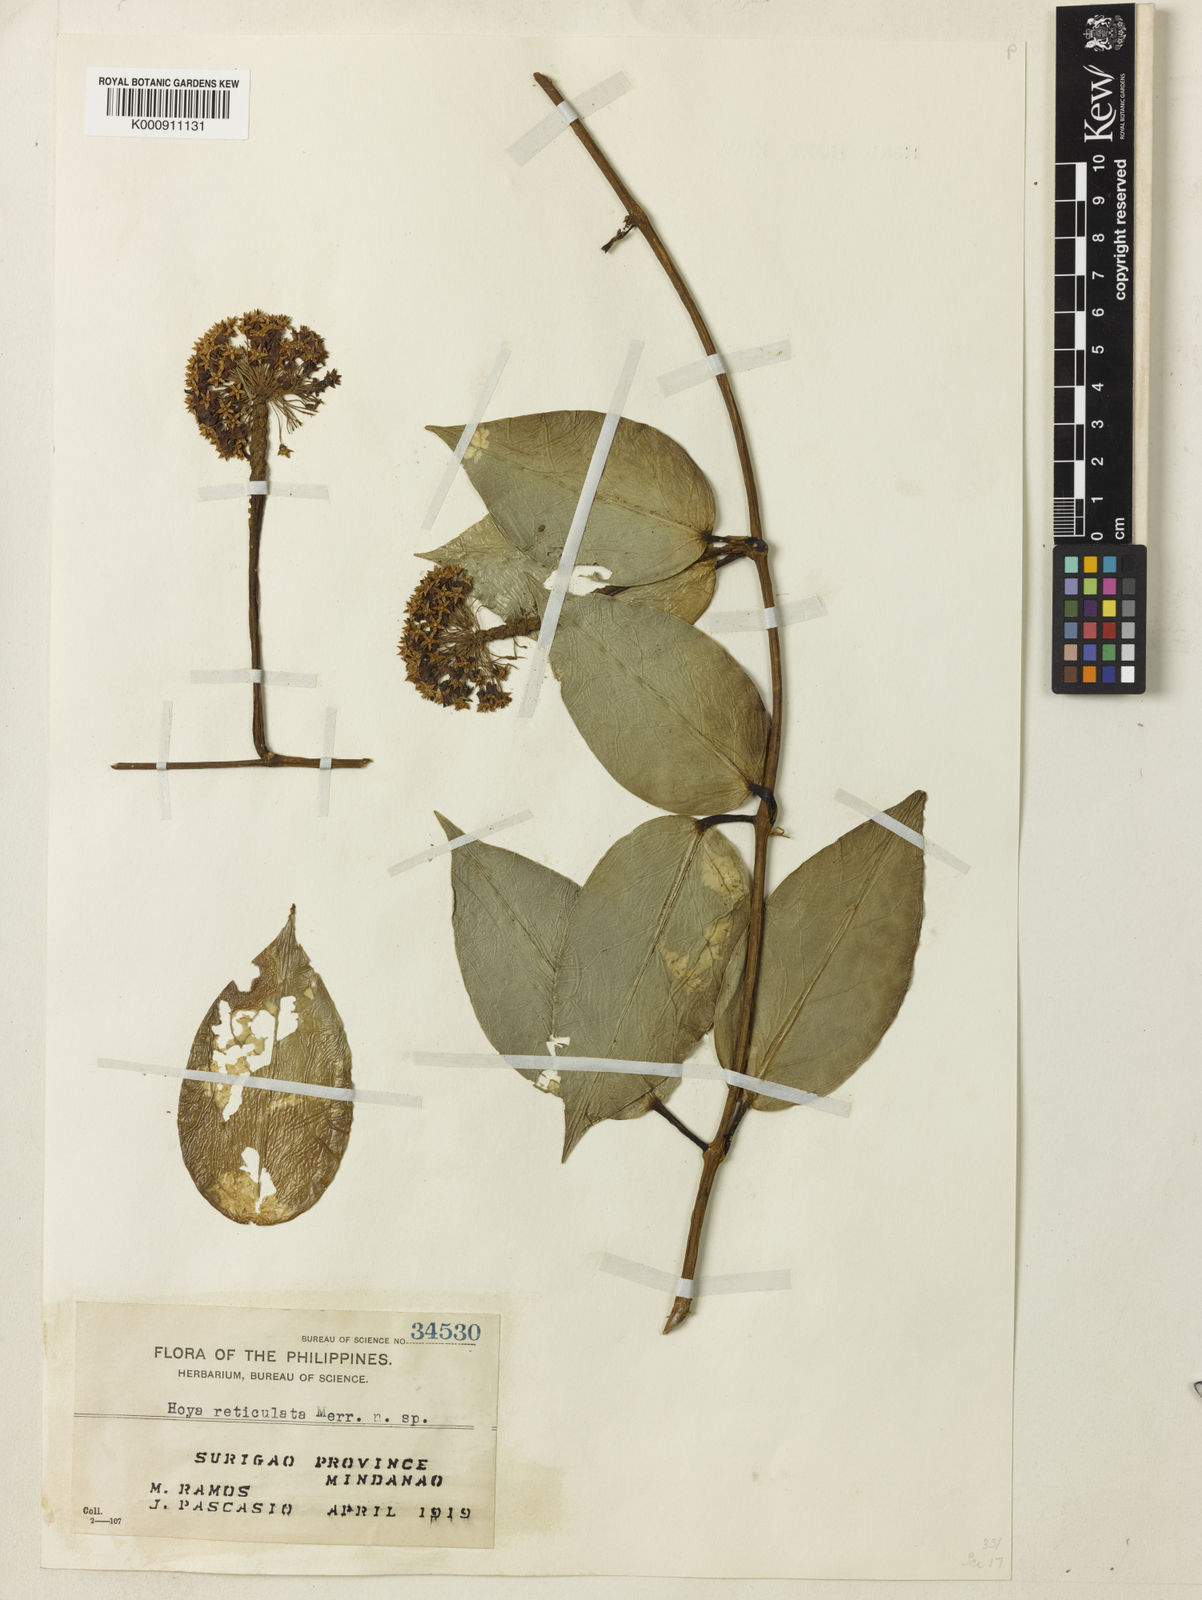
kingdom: Plantae
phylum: Tracheophyta
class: Magnoliopsida
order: Gentianales
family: Apocynaceae
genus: Hoya
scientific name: Hoya orientalis
